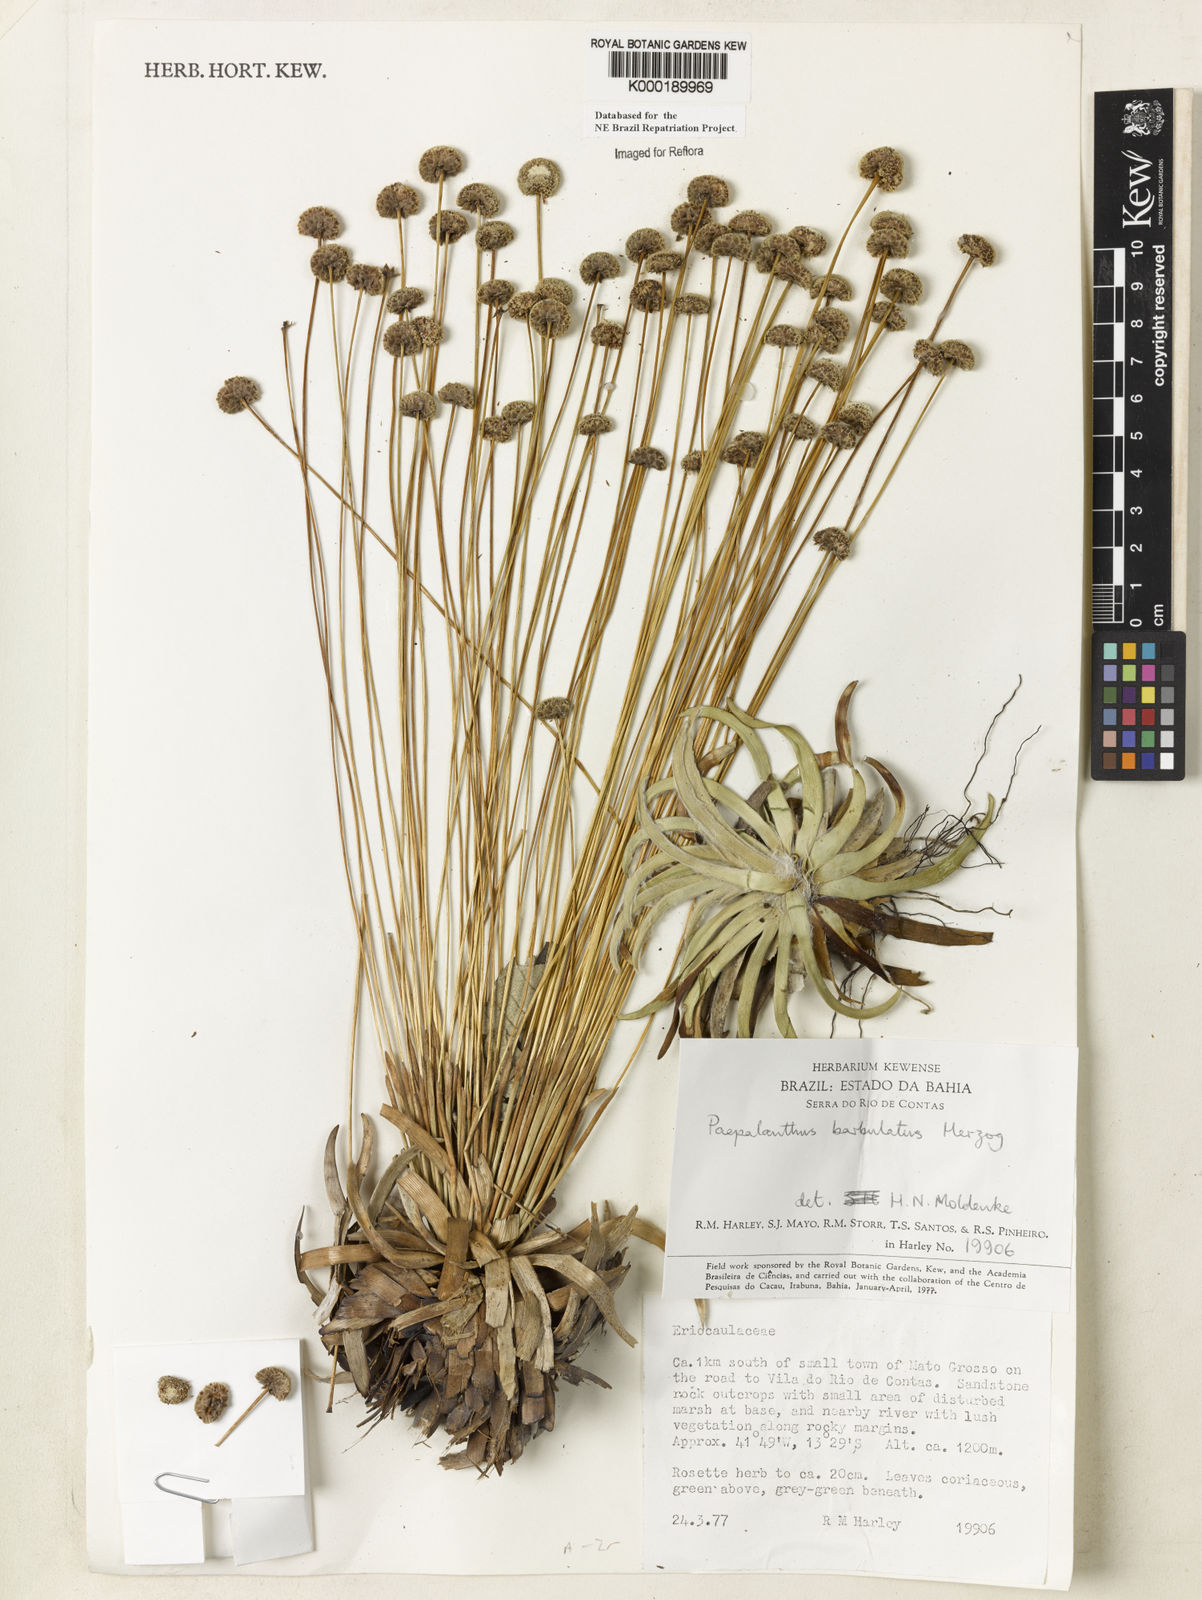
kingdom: Plantae
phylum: Tracheophyta
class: Liliopsida
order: Poales
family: Eriocaulaceae
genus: Paepalanthus
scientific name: Paepalanthus barbulatus
